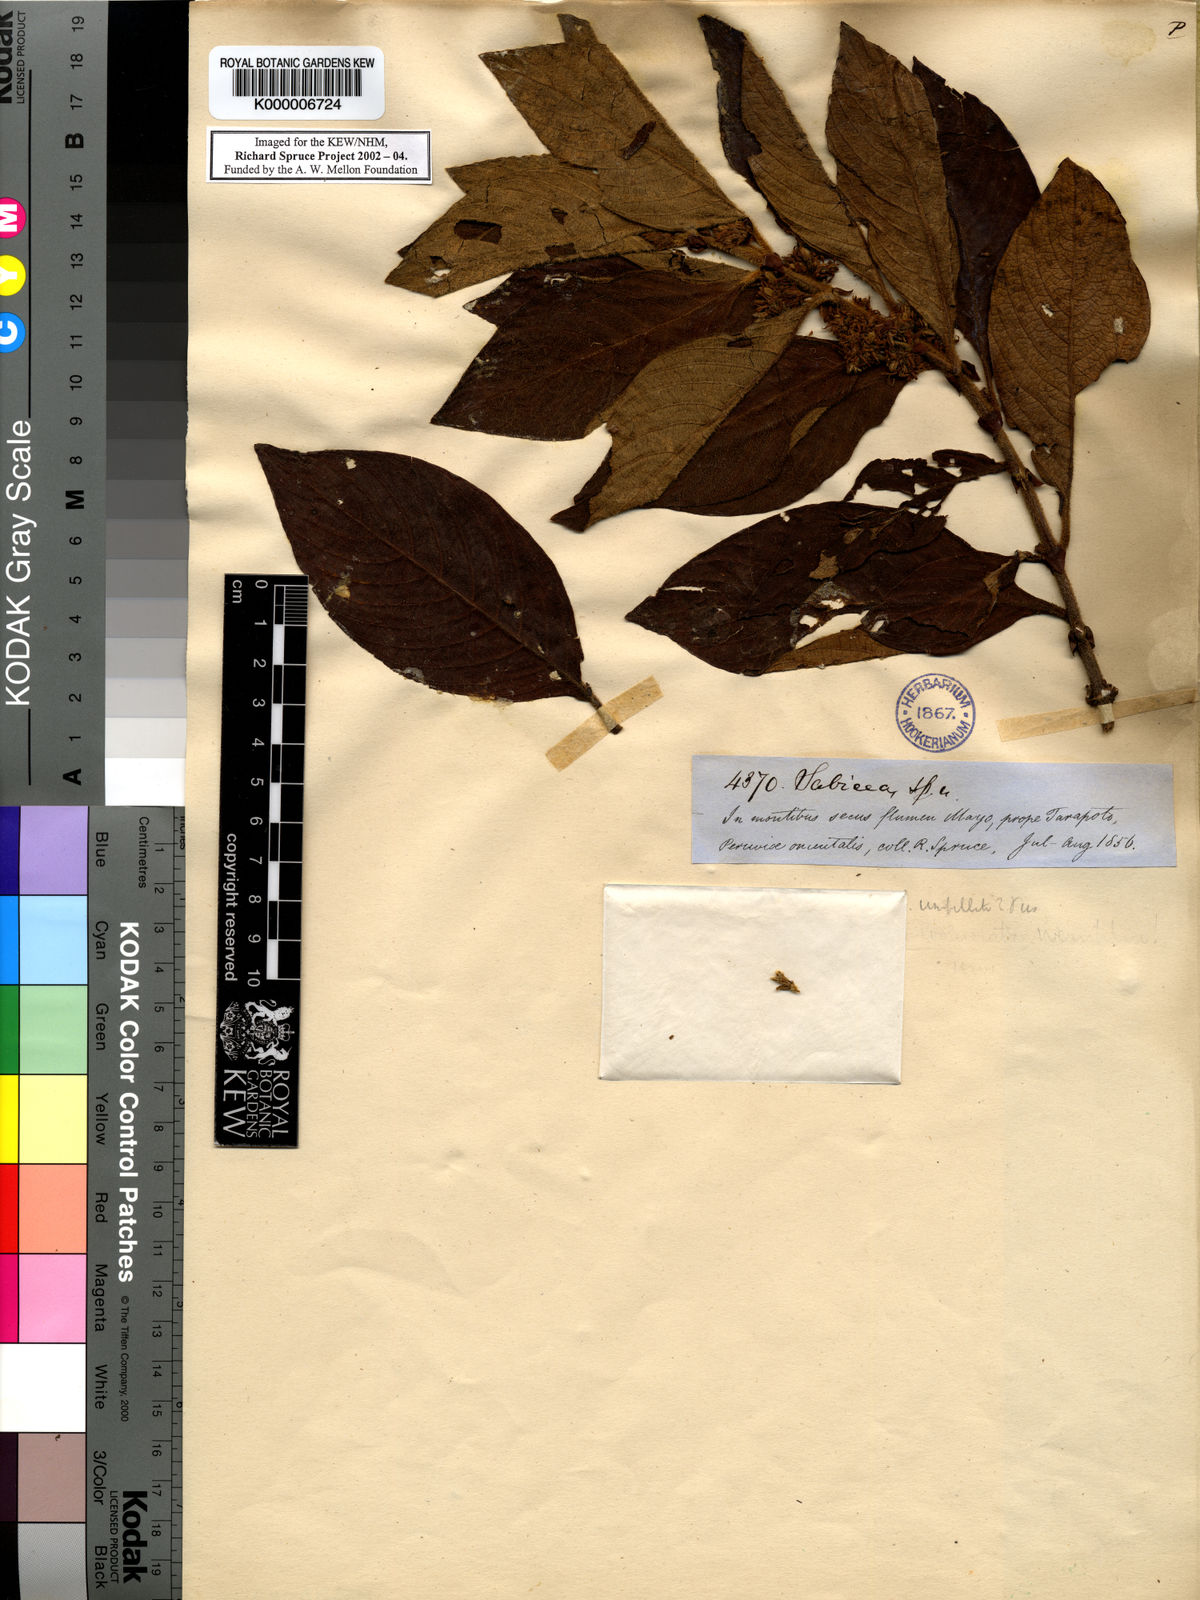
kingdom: Plantae
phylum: Tracheophyta
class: Magnoliopsida
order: Gentianales
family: Rubiaceae
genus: Sabicea
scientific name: Sabicea subinvolucrata
